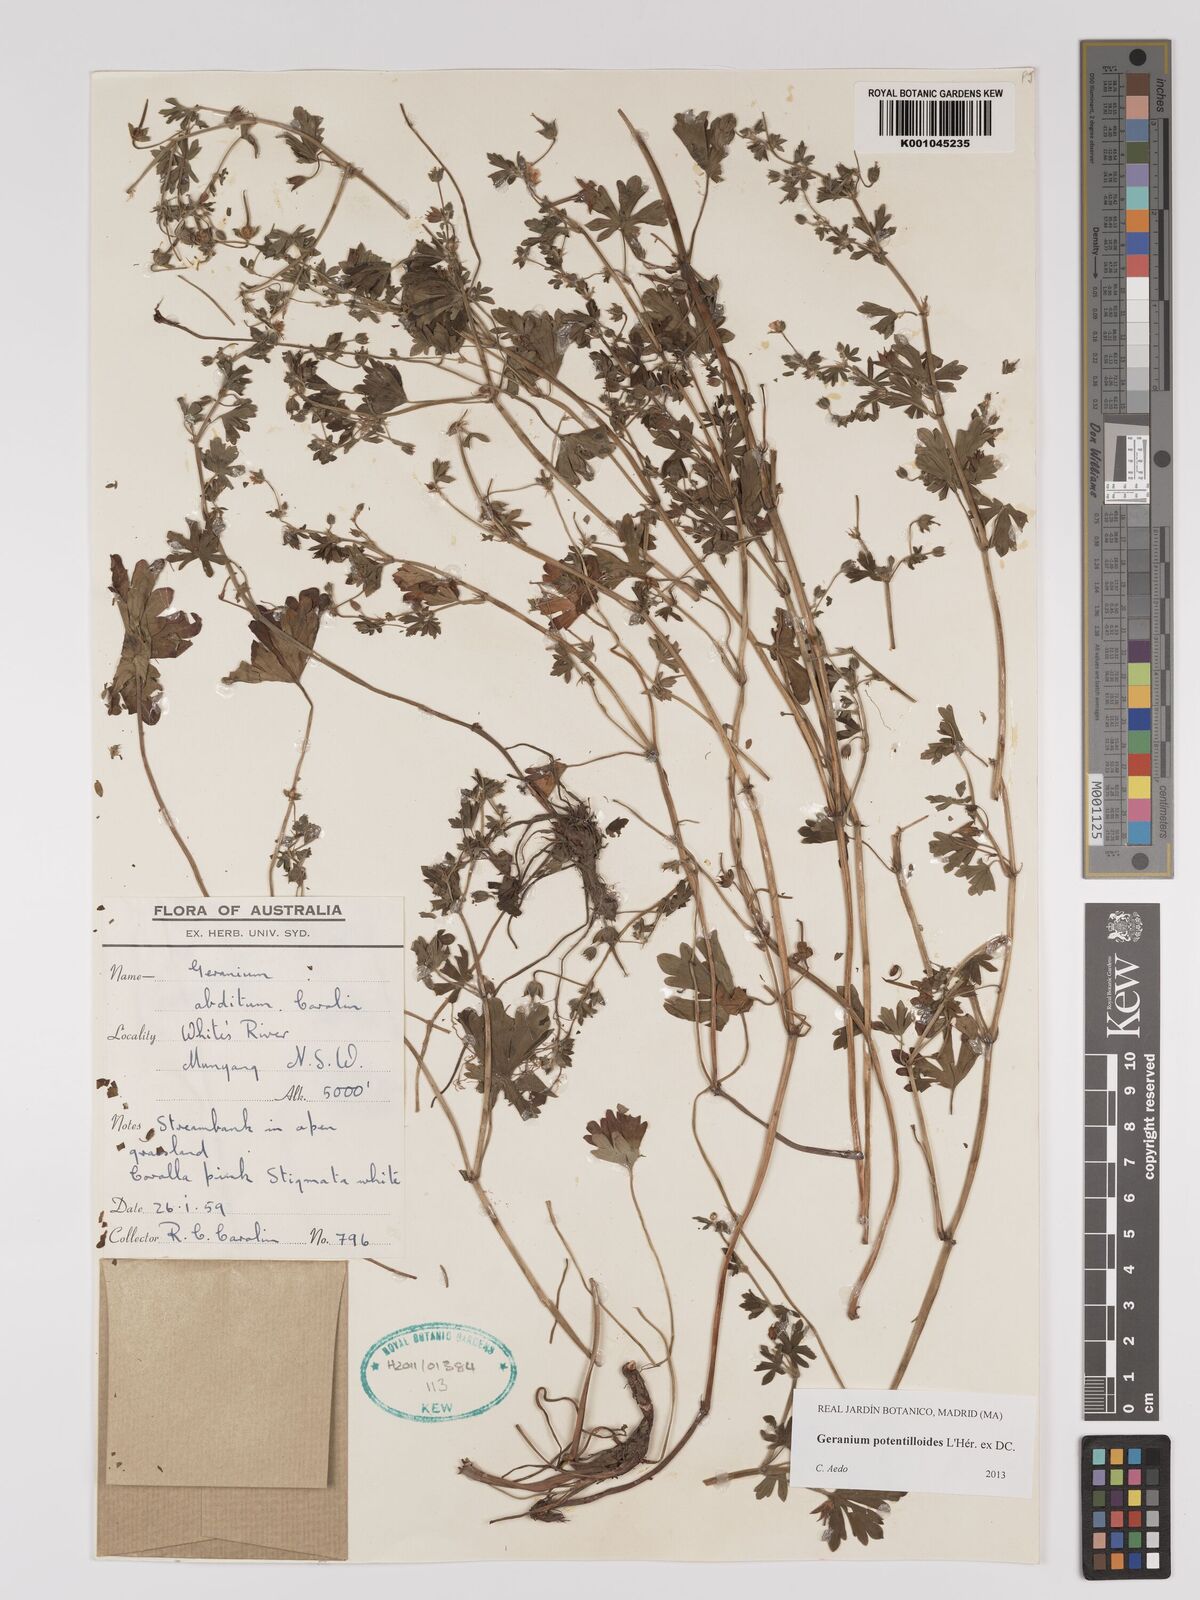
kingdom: Plantae
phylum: Tracheophyta
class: Magnoliopsida
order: Geraniales
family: Geraniaceae
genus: Geranium
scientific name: Geranium potentilloides
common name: Cinquefoil geranium
